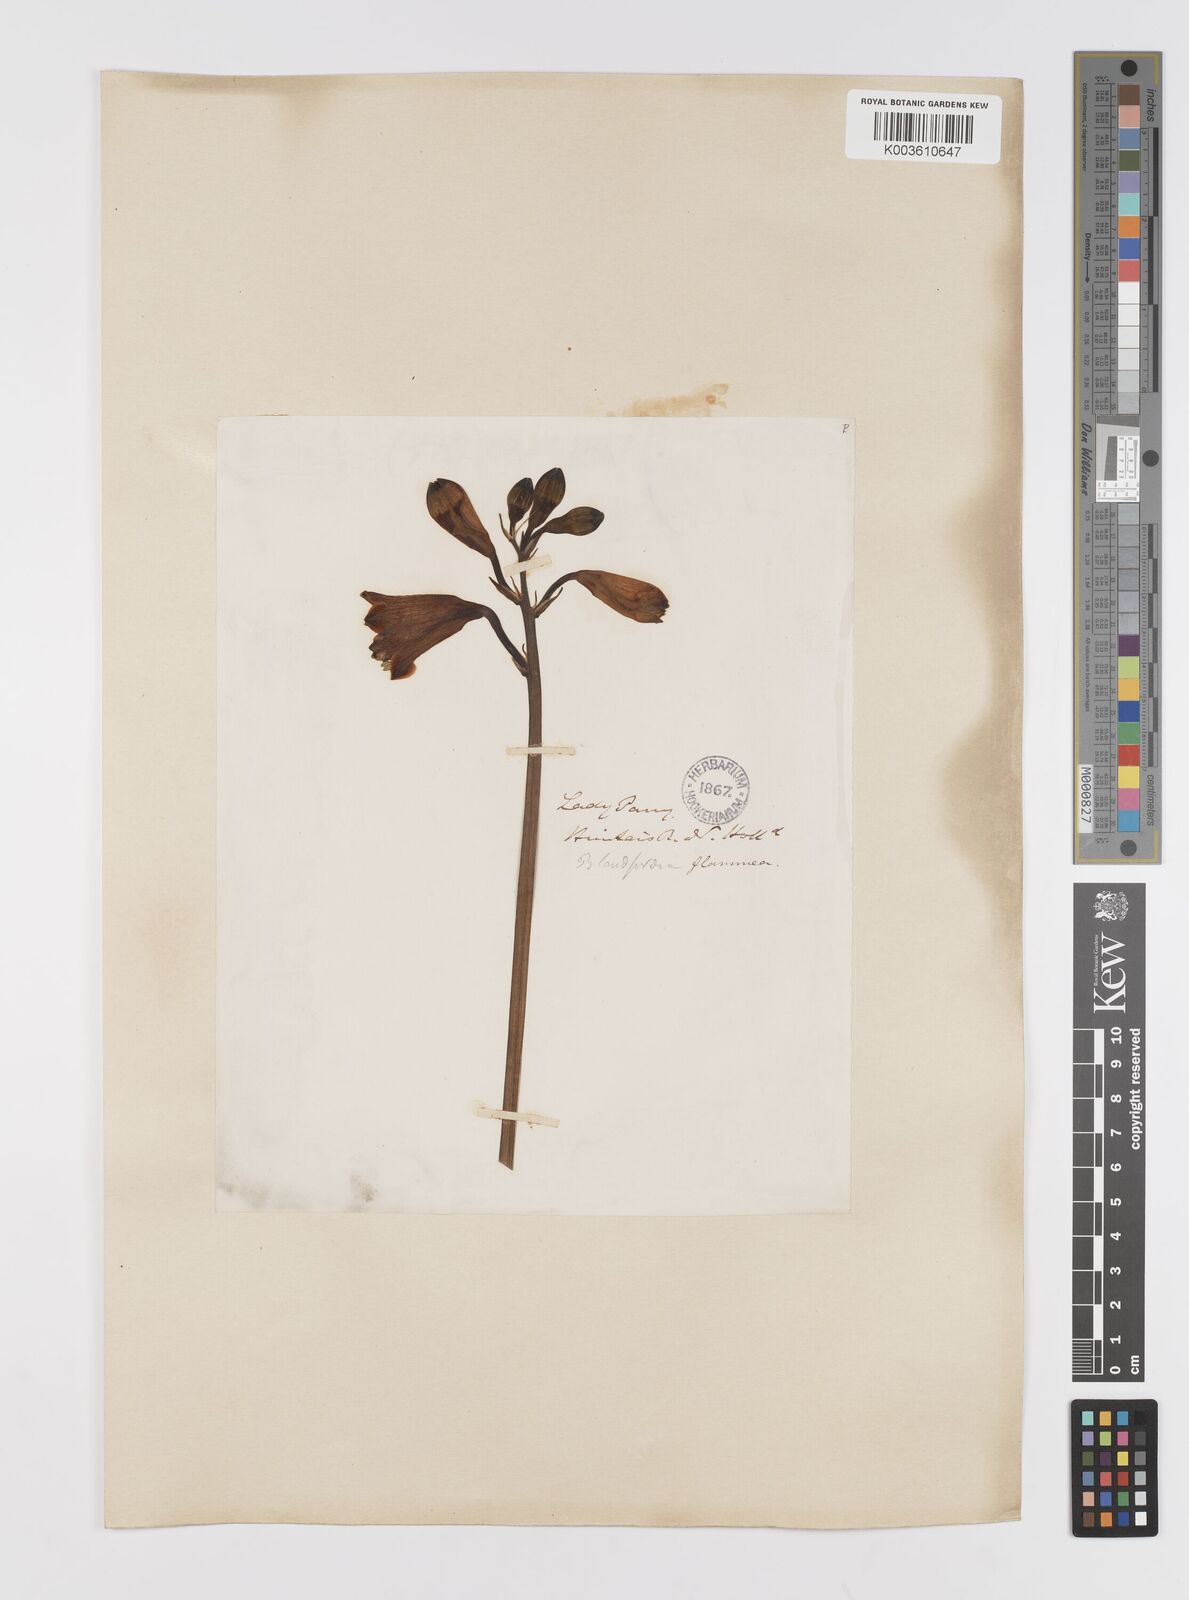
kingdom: Plantae
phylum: Tracheophyta
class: Liliopsida
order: Asparagales
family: Blandfordiaceae
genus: Blandfordia
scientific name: Blandfordia punicea
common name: Tasmanian christmas-bell
